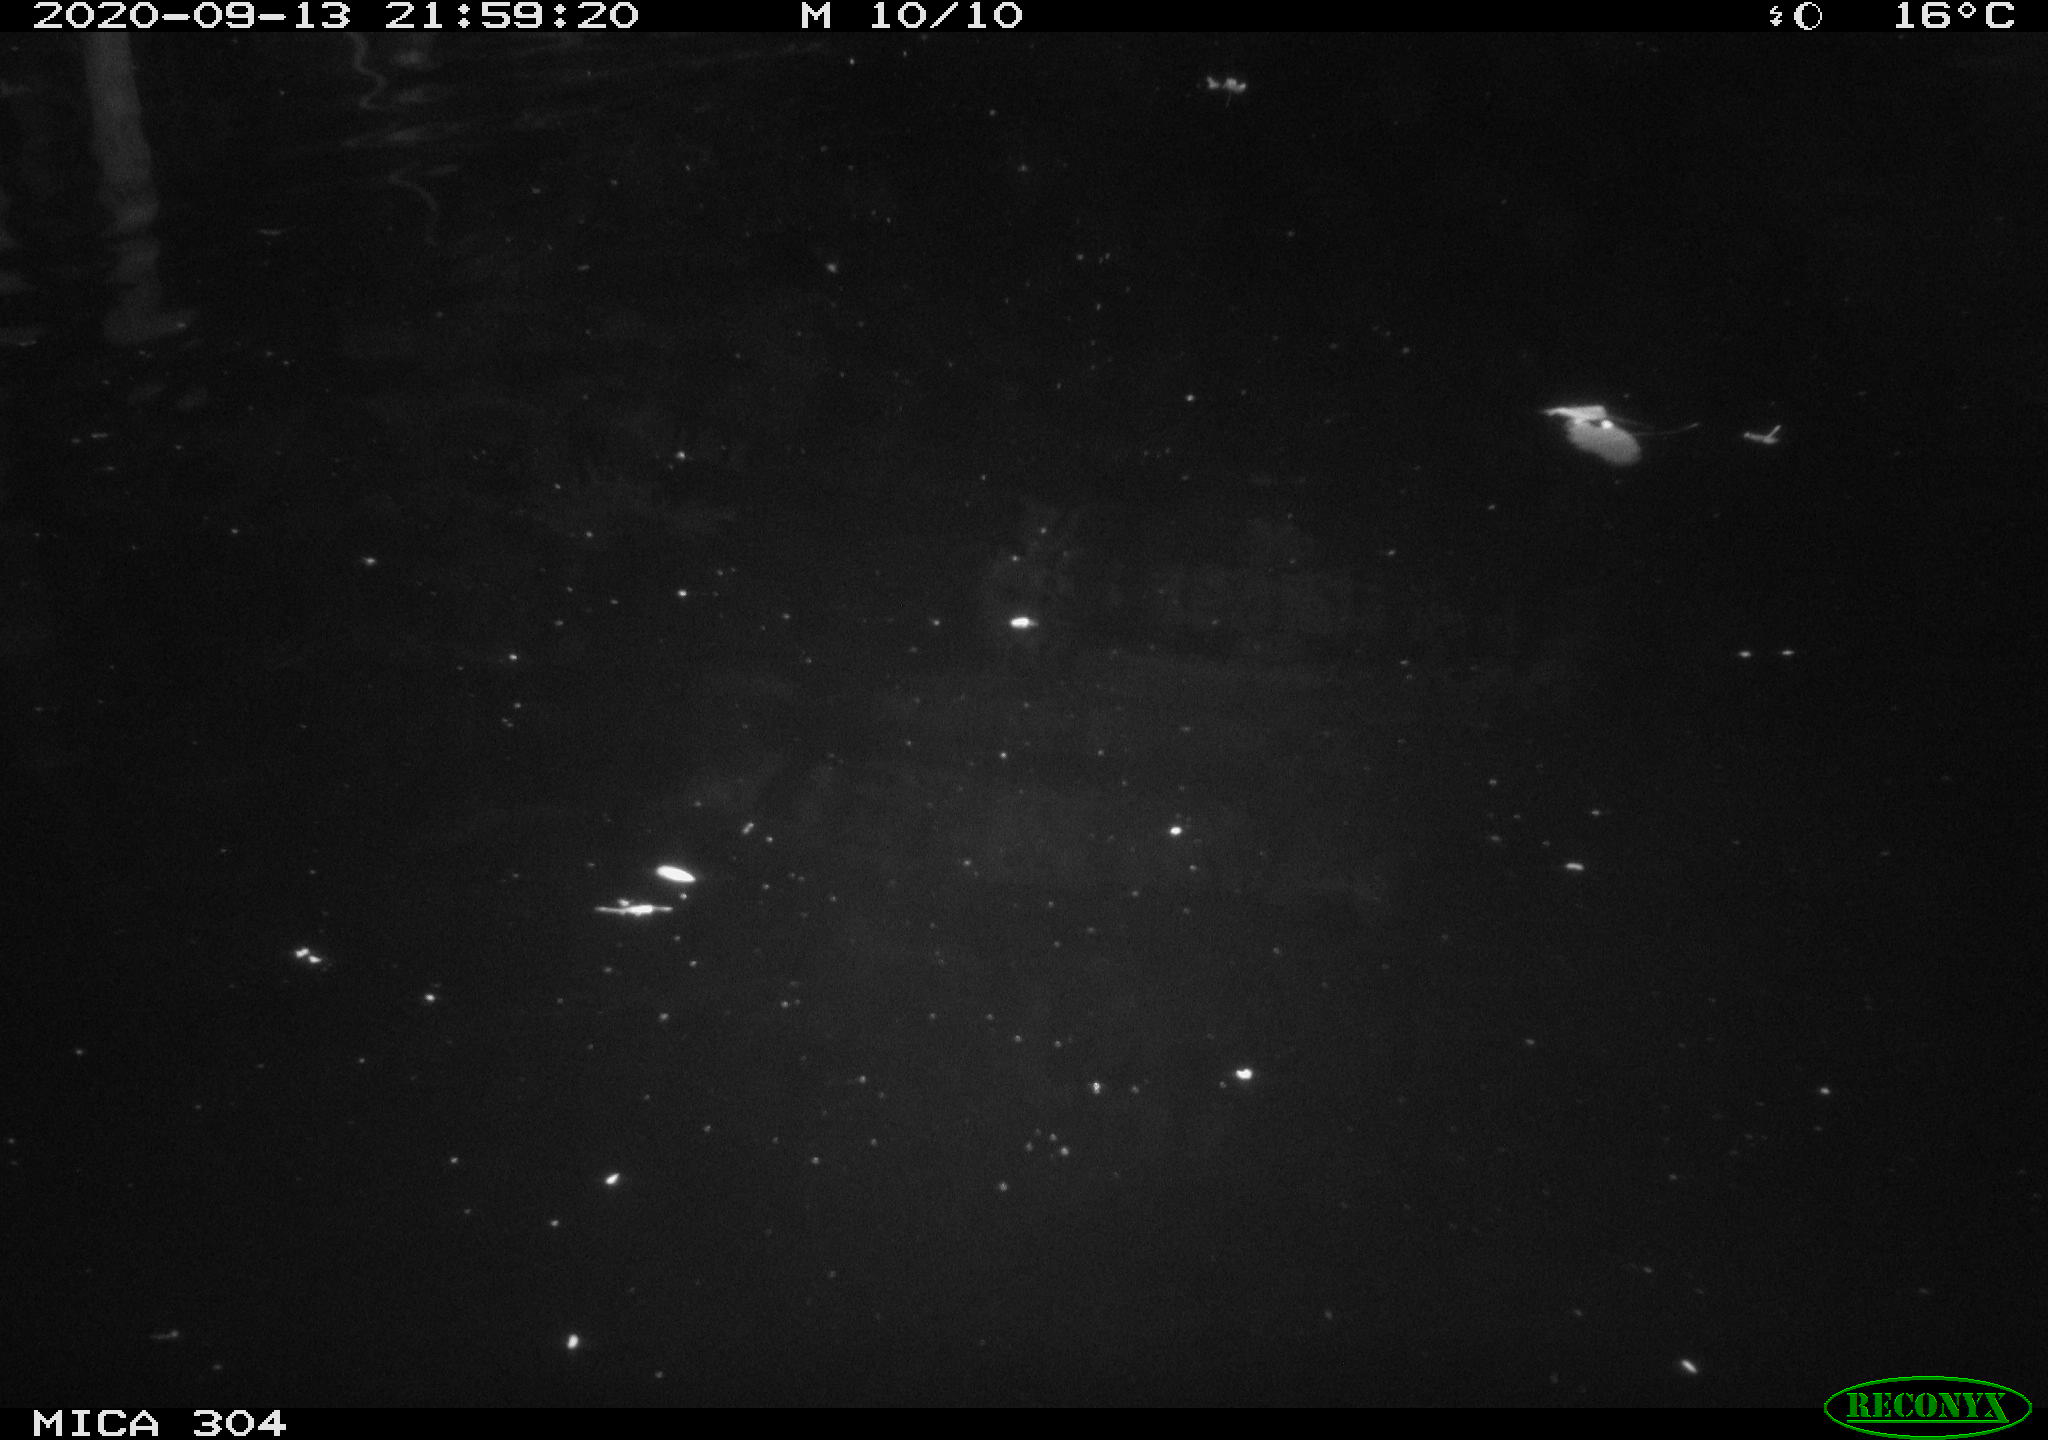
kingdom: Animalia
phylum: Chordata
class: Mammalia
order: Rodentia
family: Cricetidae
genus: Ondatra
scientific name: Ondatra zibethicus
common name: Muskrat
